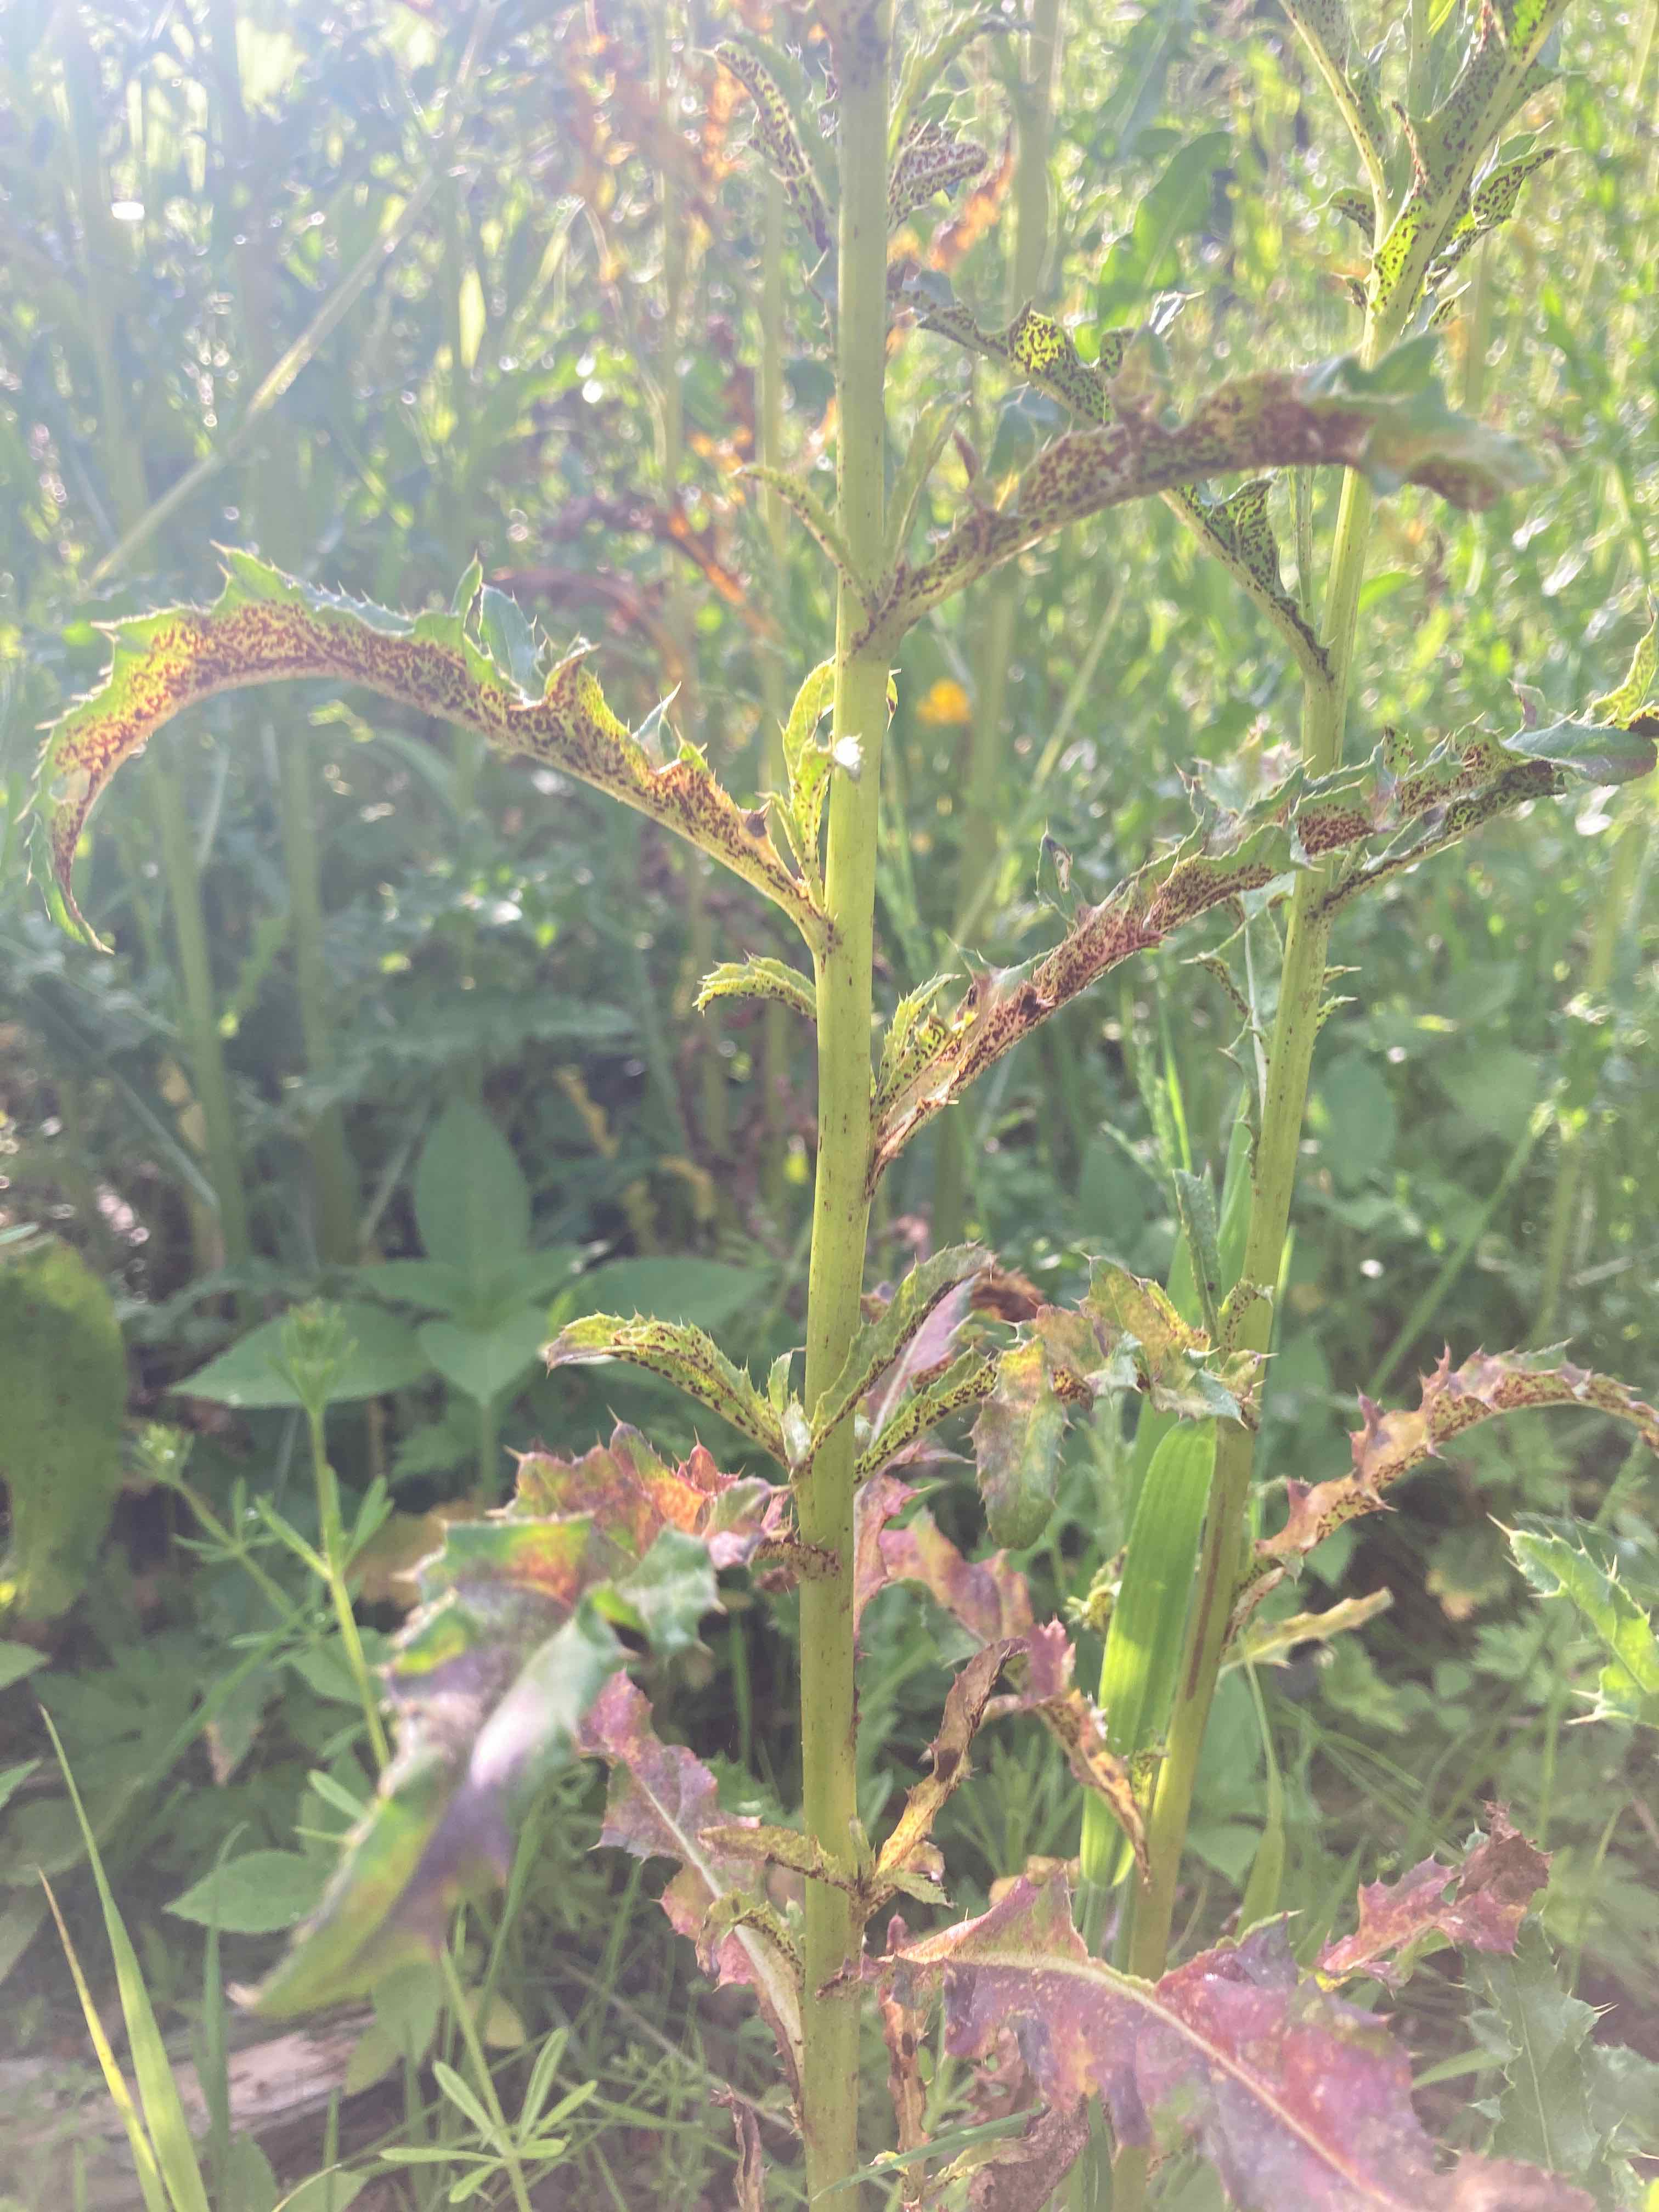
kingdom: Fungi
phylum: Basidiomycota
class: Pucciniomycetes
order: Pucciniales
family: Pucciniaceae
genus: Puccinia
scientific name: Puccinia suaveolens
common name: tidsel-tvecellerust
